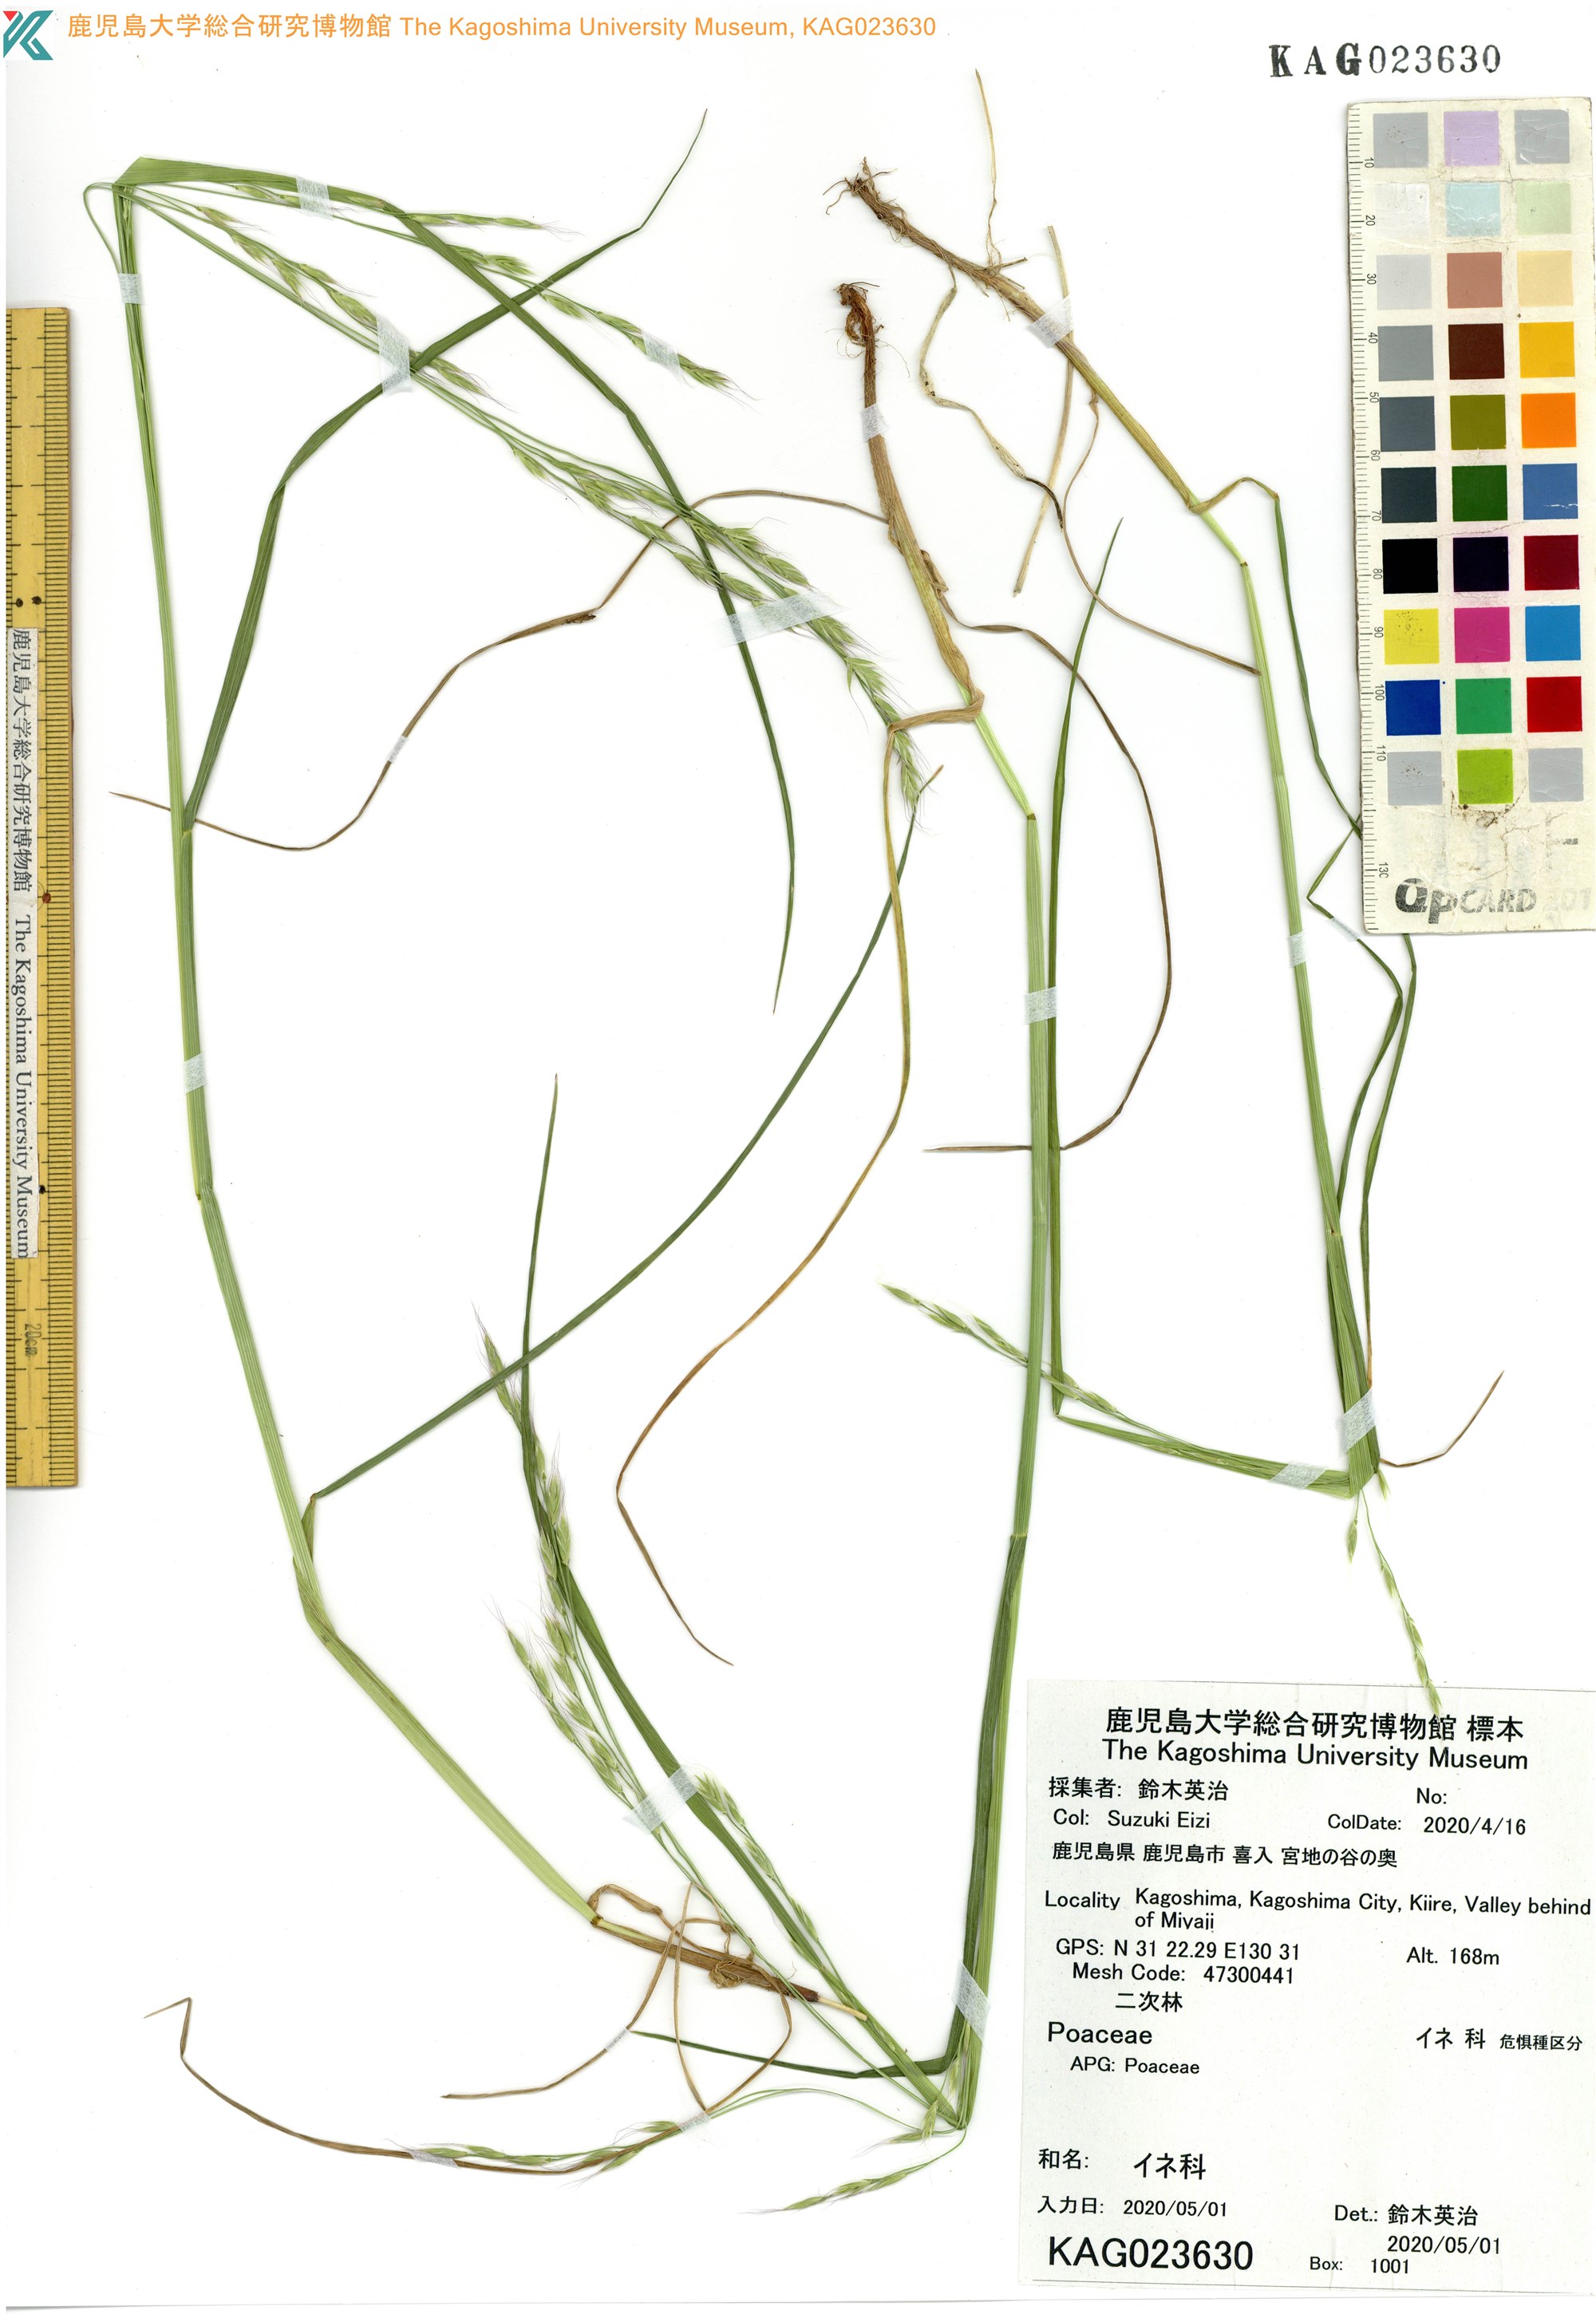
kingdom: Plantae
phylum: Tracheophyta
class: Liliopsida
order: Poales
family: Poaceae
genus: Festuca
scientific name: Festuca parvigluma
